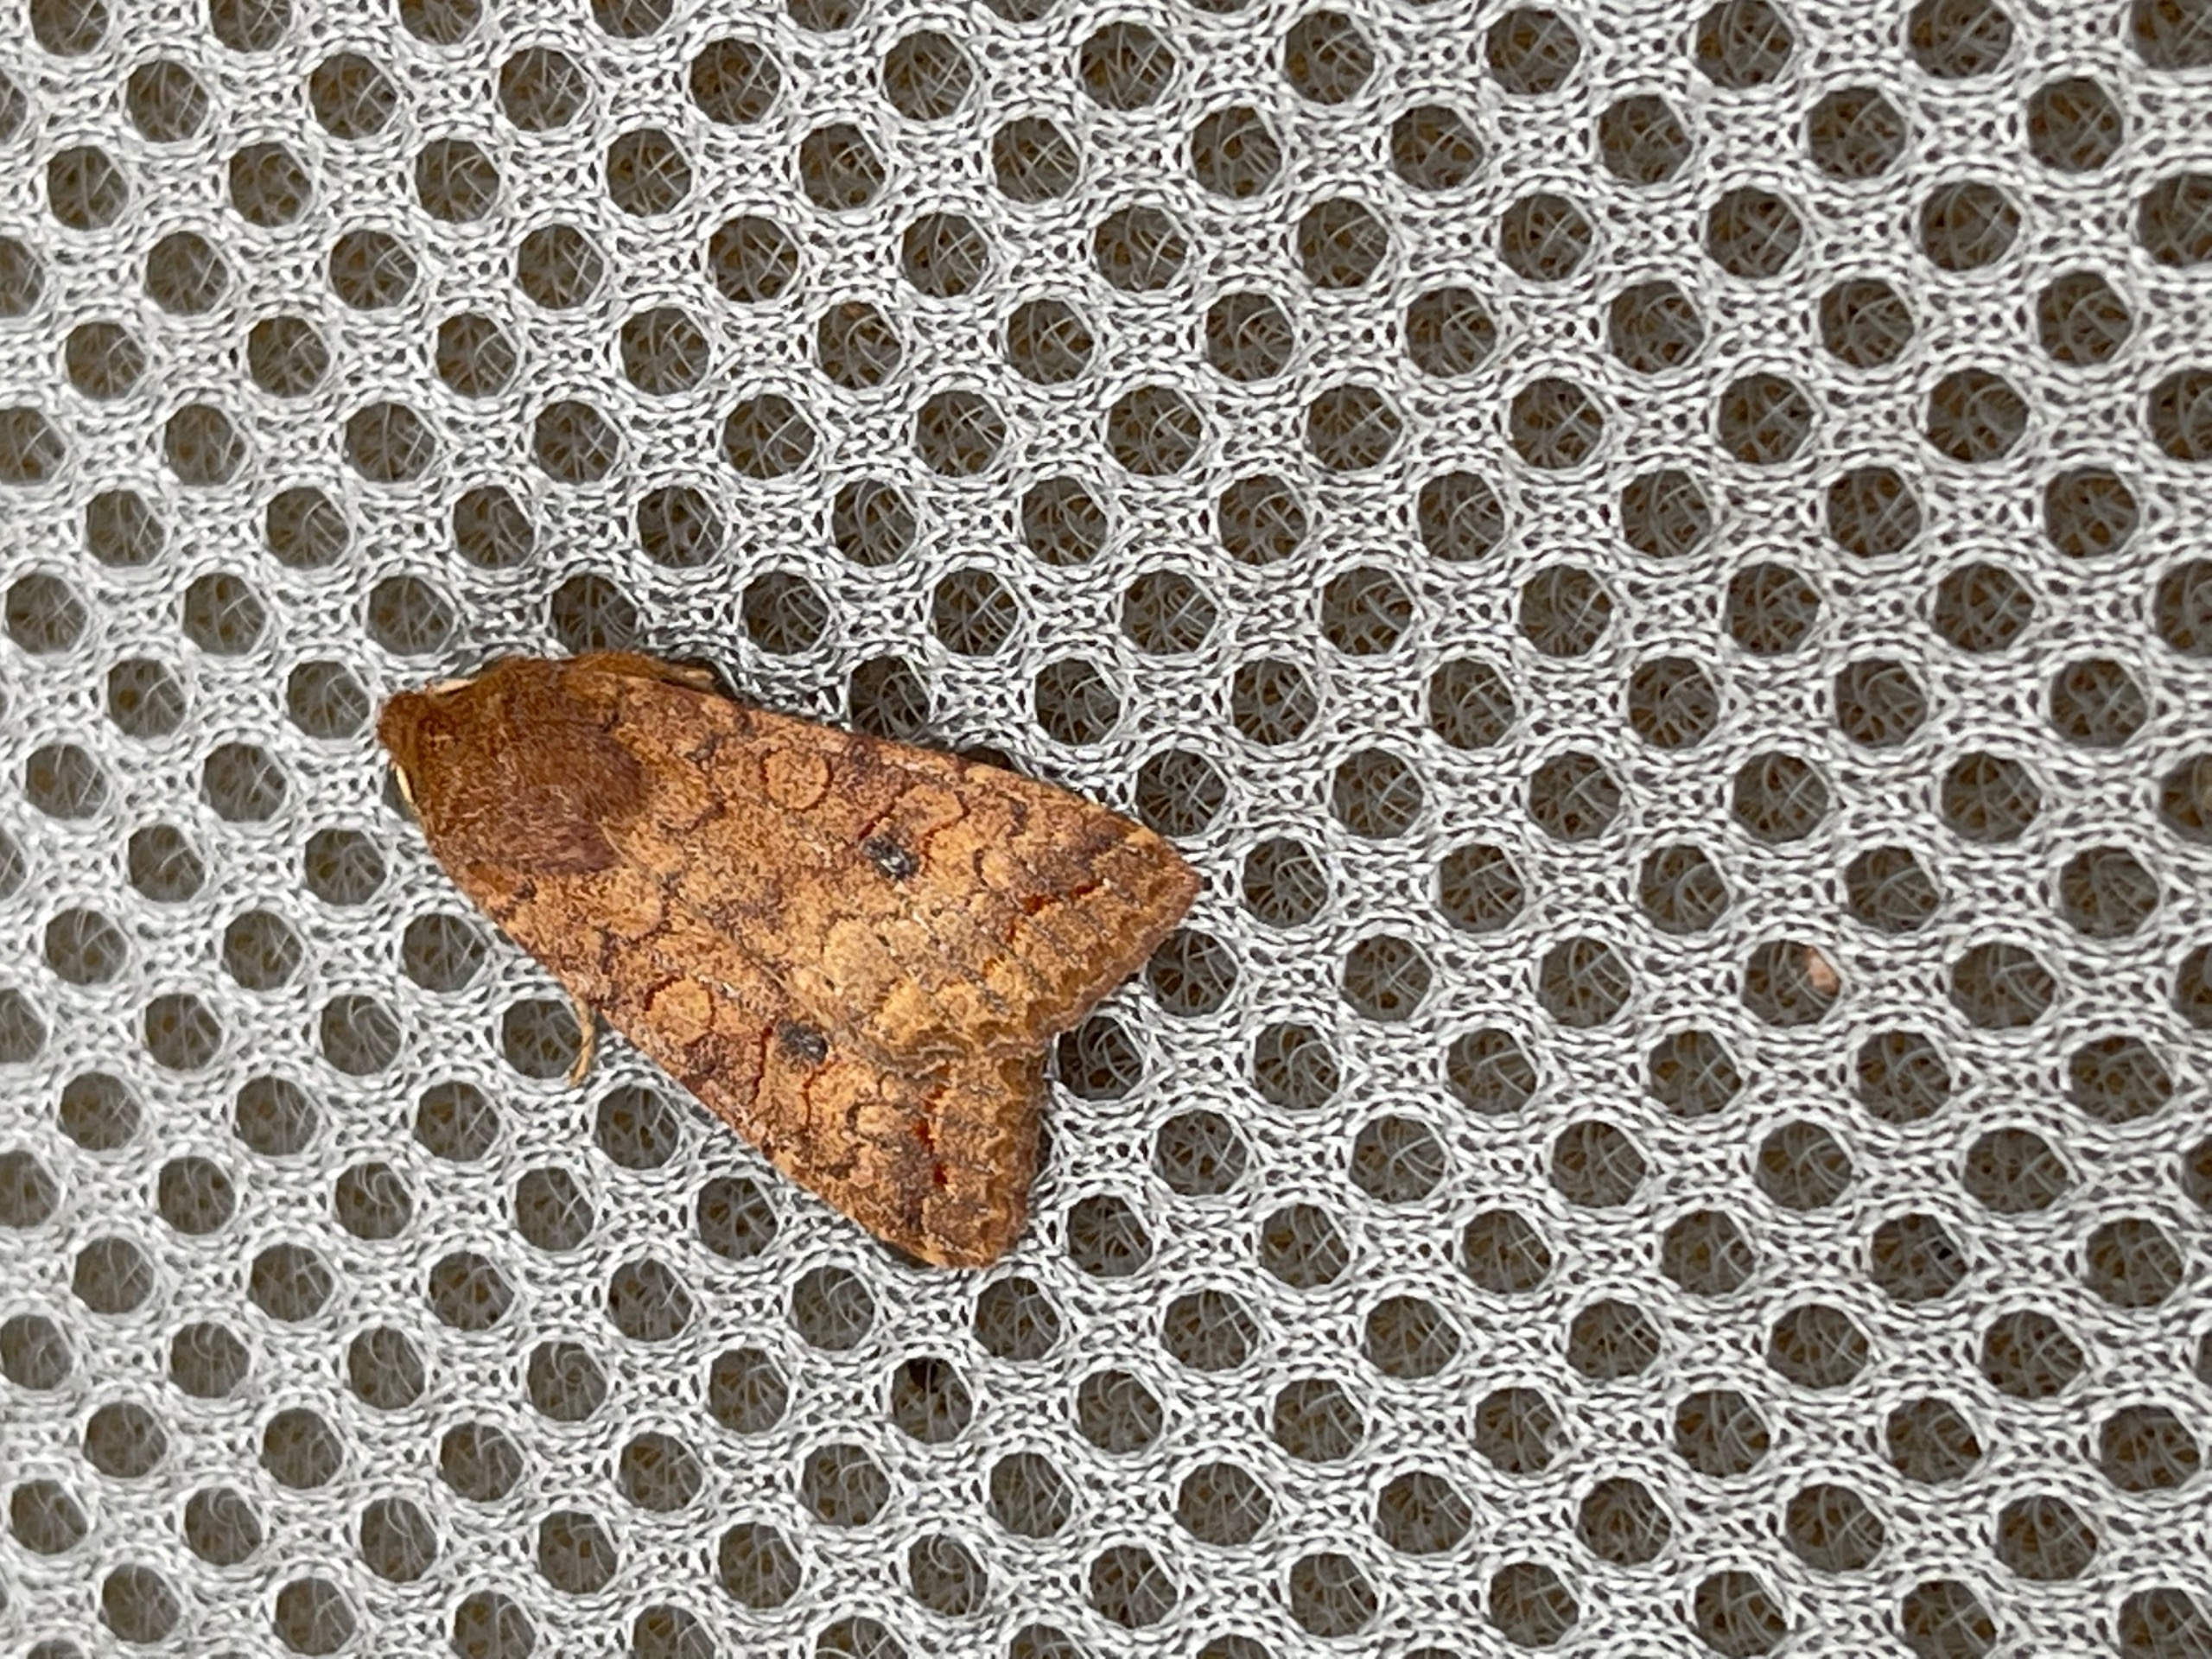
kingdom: Animalia
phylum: Arthropoda
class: Insecta
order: Lepidoptera
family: Noctuidae
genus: Sunira
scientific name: Sunira circellaris
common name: Cirkel-jordfarveugle
